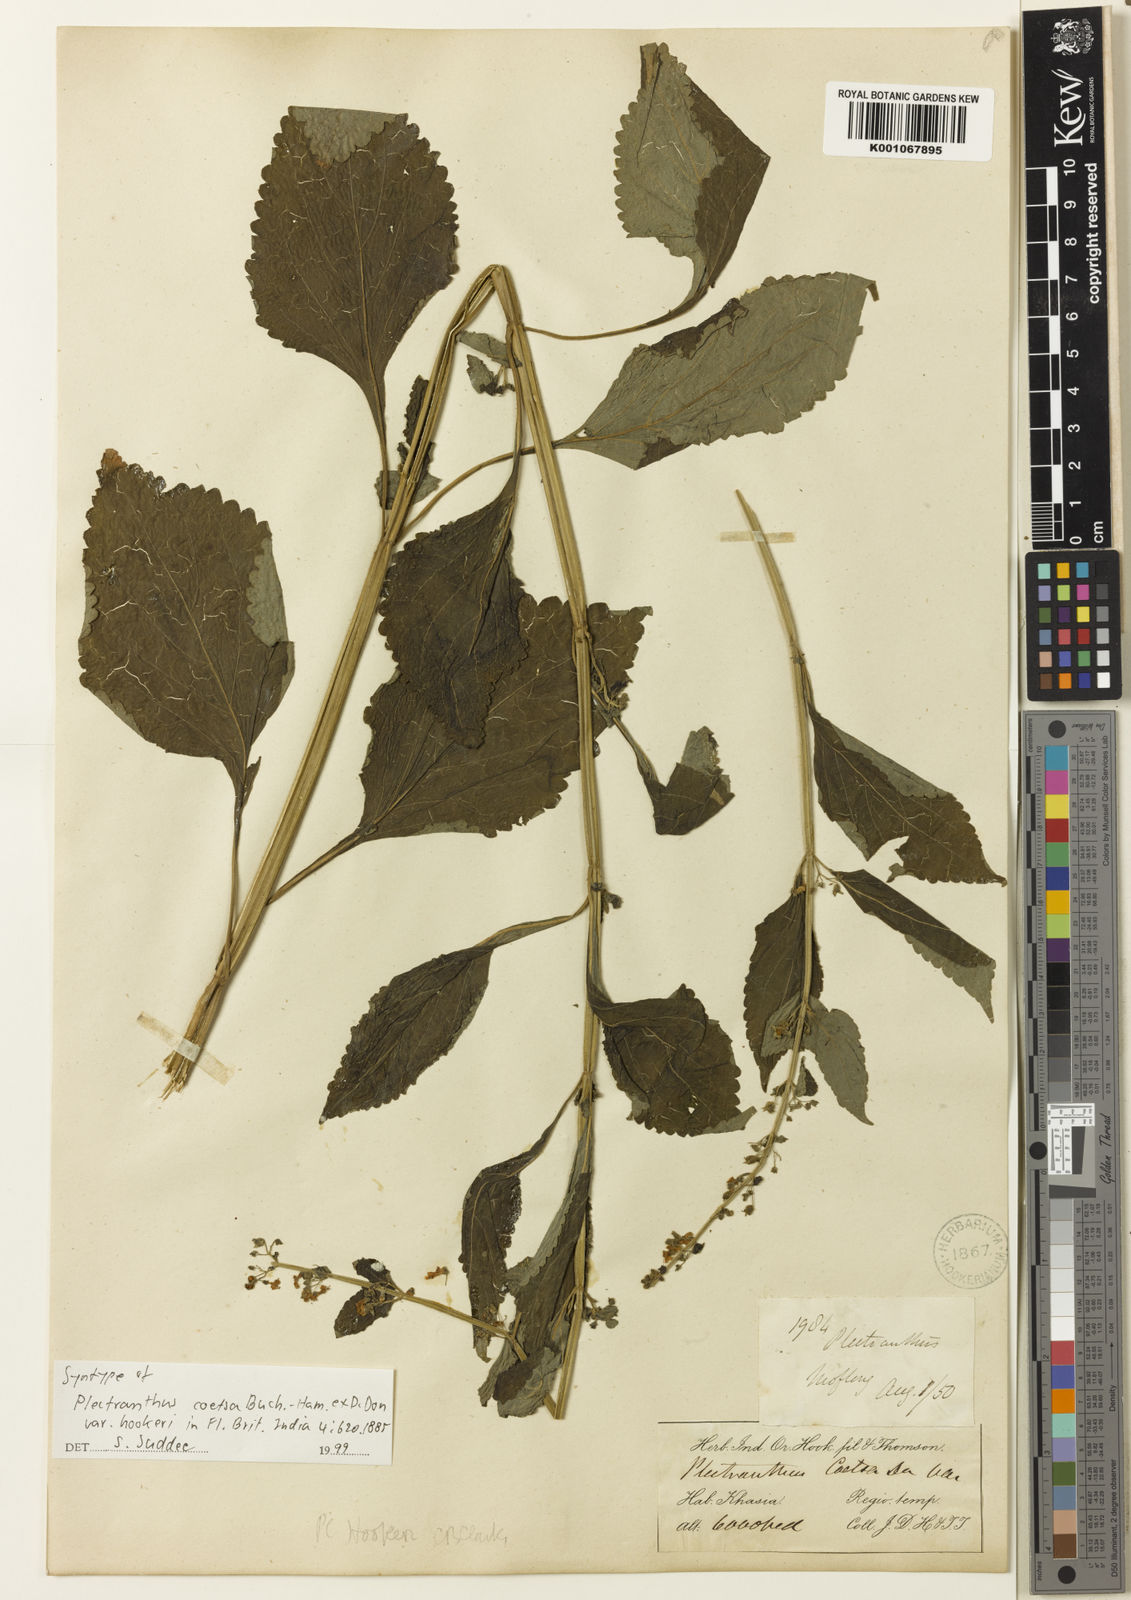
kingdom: Plantae
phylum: Tracheophyta
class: Magnoliopsida
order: Lamiales
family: Lamiaceae
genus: Isodon
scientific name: Isodon
